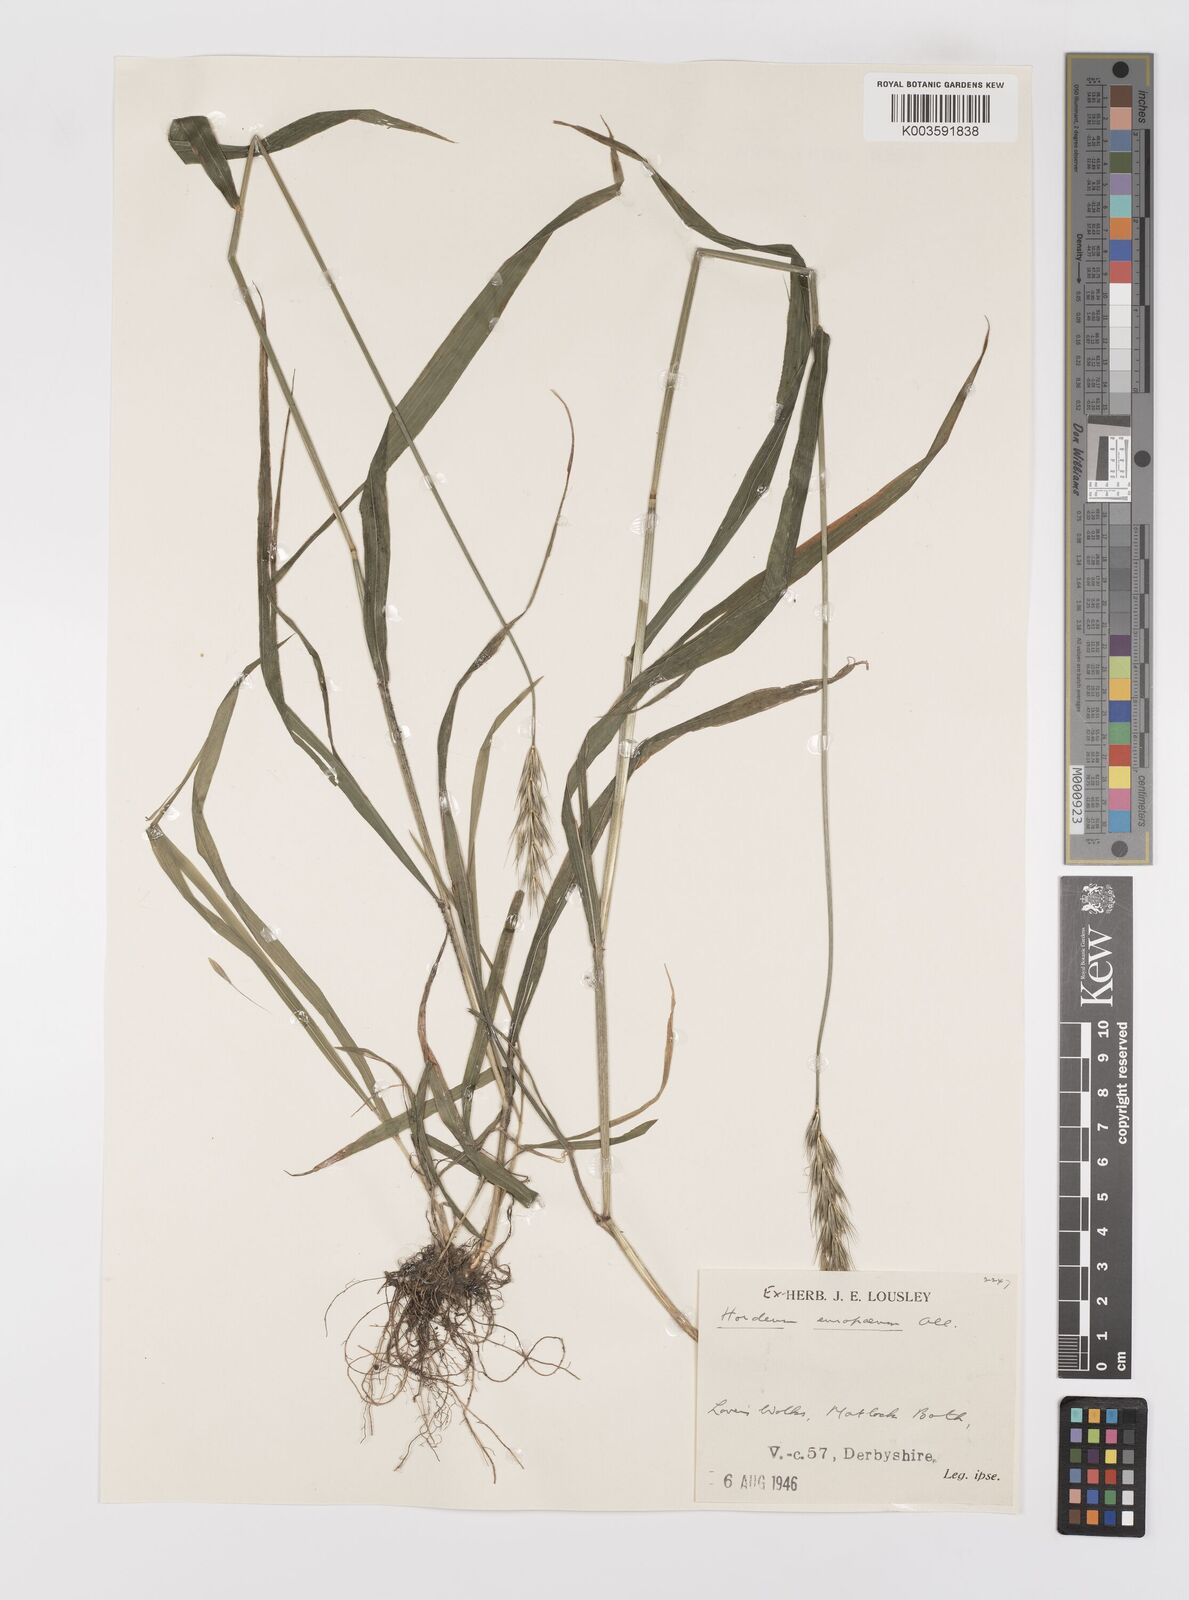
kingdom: Plantae
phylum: Tracheophyta
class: Liliopsida
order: Poales
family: Poaceae
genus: Hordelymus
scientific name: Hordelymus europaeus
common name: Wood-barley
